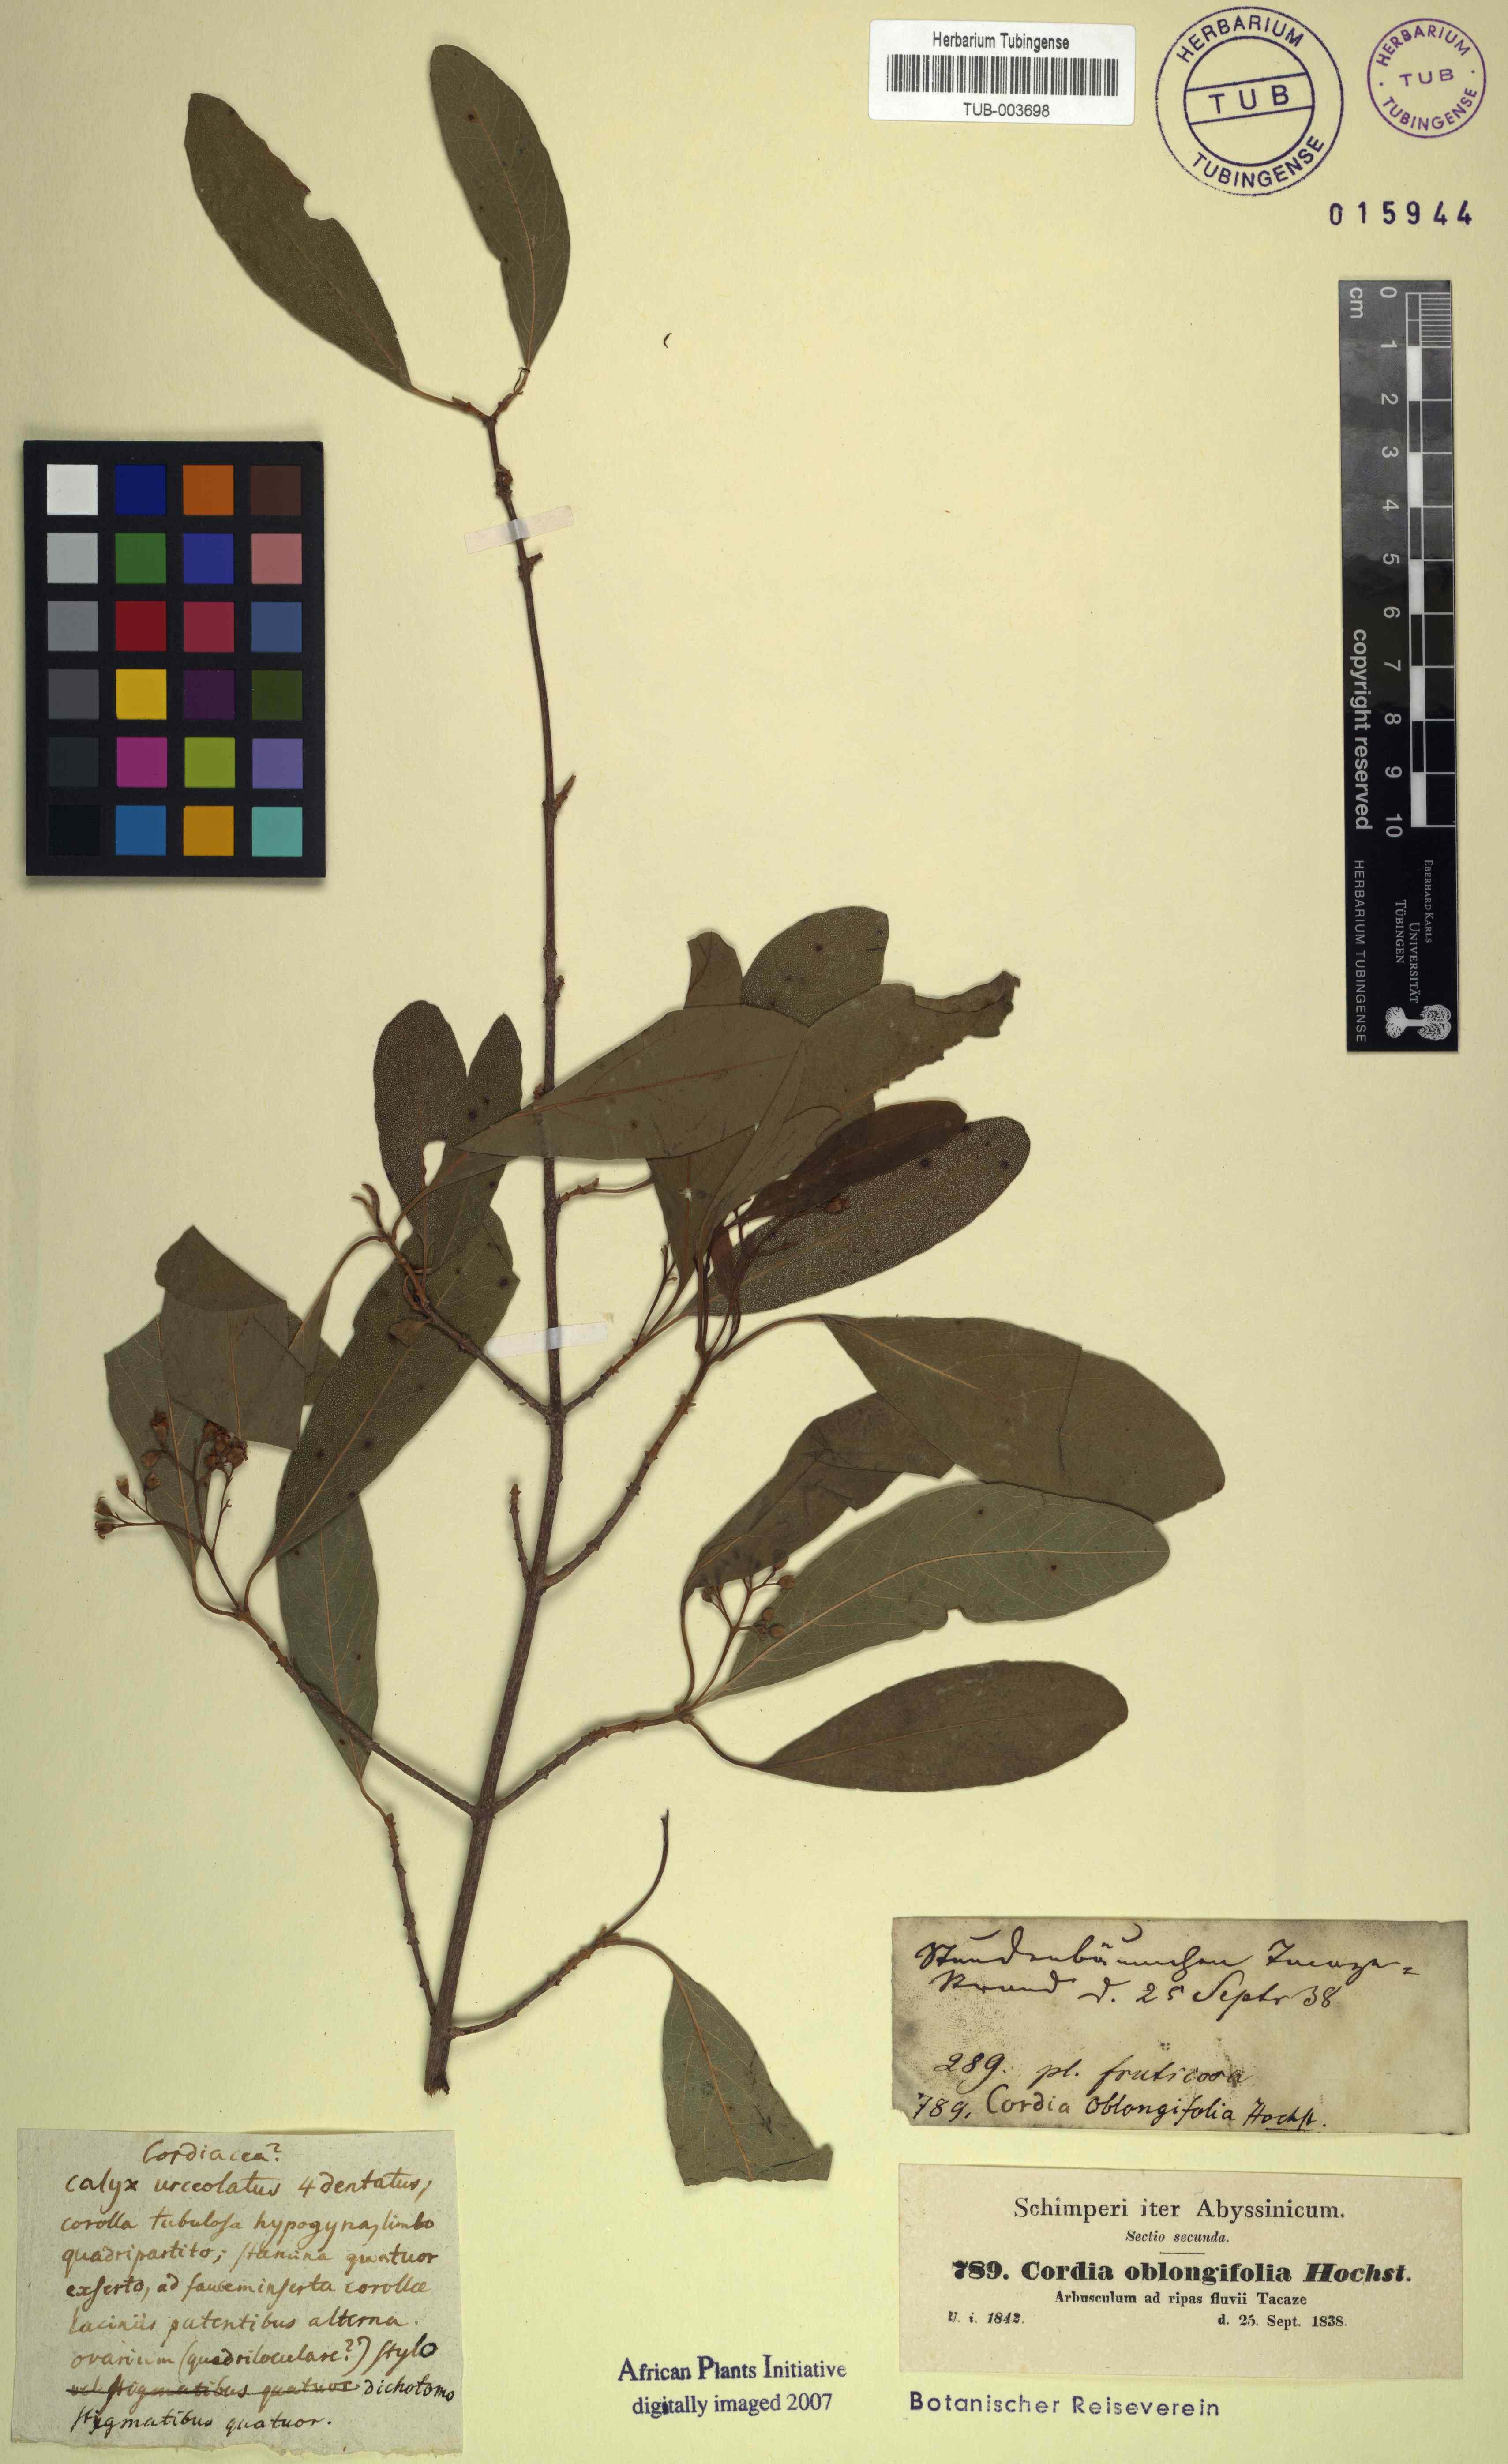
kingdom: Plantae
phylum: Tracheophyta
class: Magnoliopsida
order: Boraginales
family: Cordiaceae
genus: Cordia
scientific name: Cordia oblongifolia
